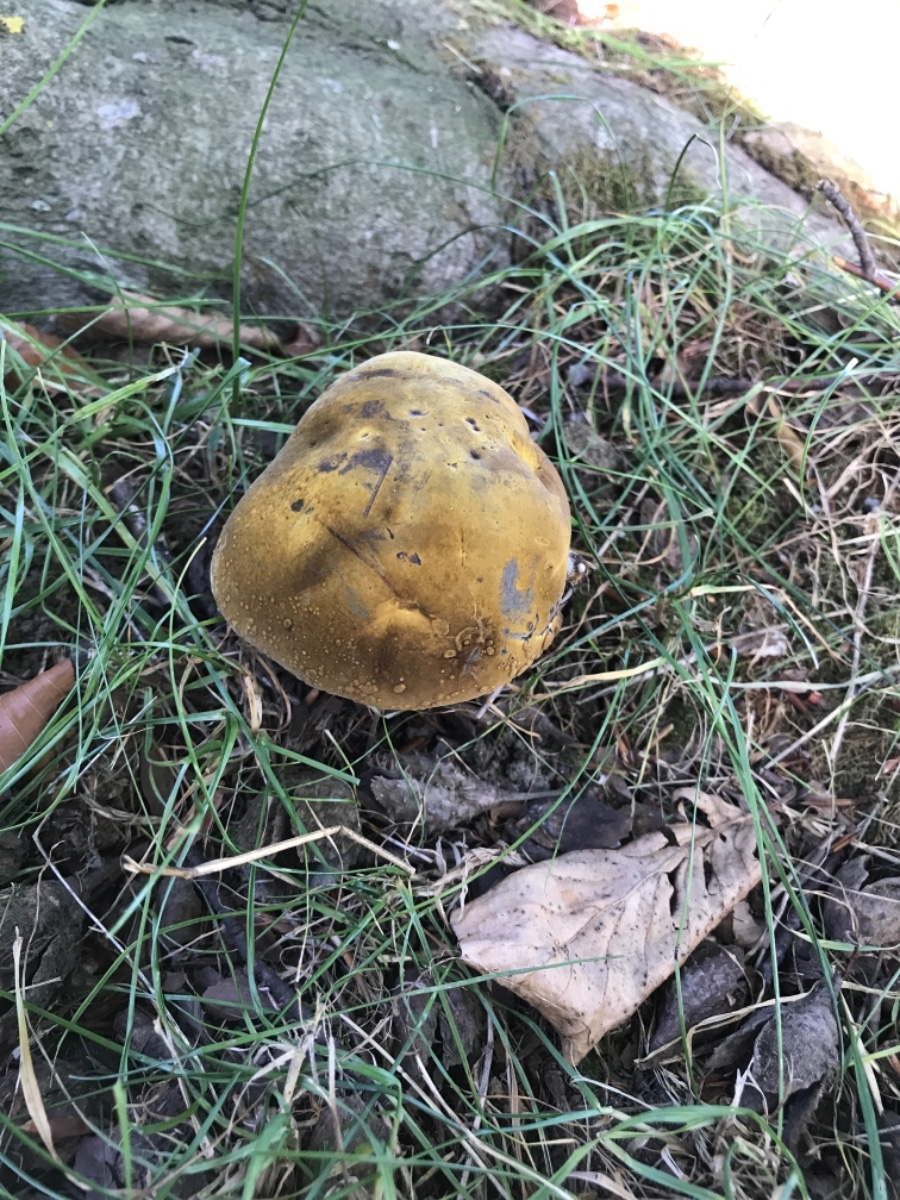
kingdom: Fungi
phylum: Basidiomycota
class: Agaricomycetes
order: Boletales
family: Boletaceae
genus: Neoboletus
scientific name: Neoboletus erythropus
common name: punktstokket indigorørhat
